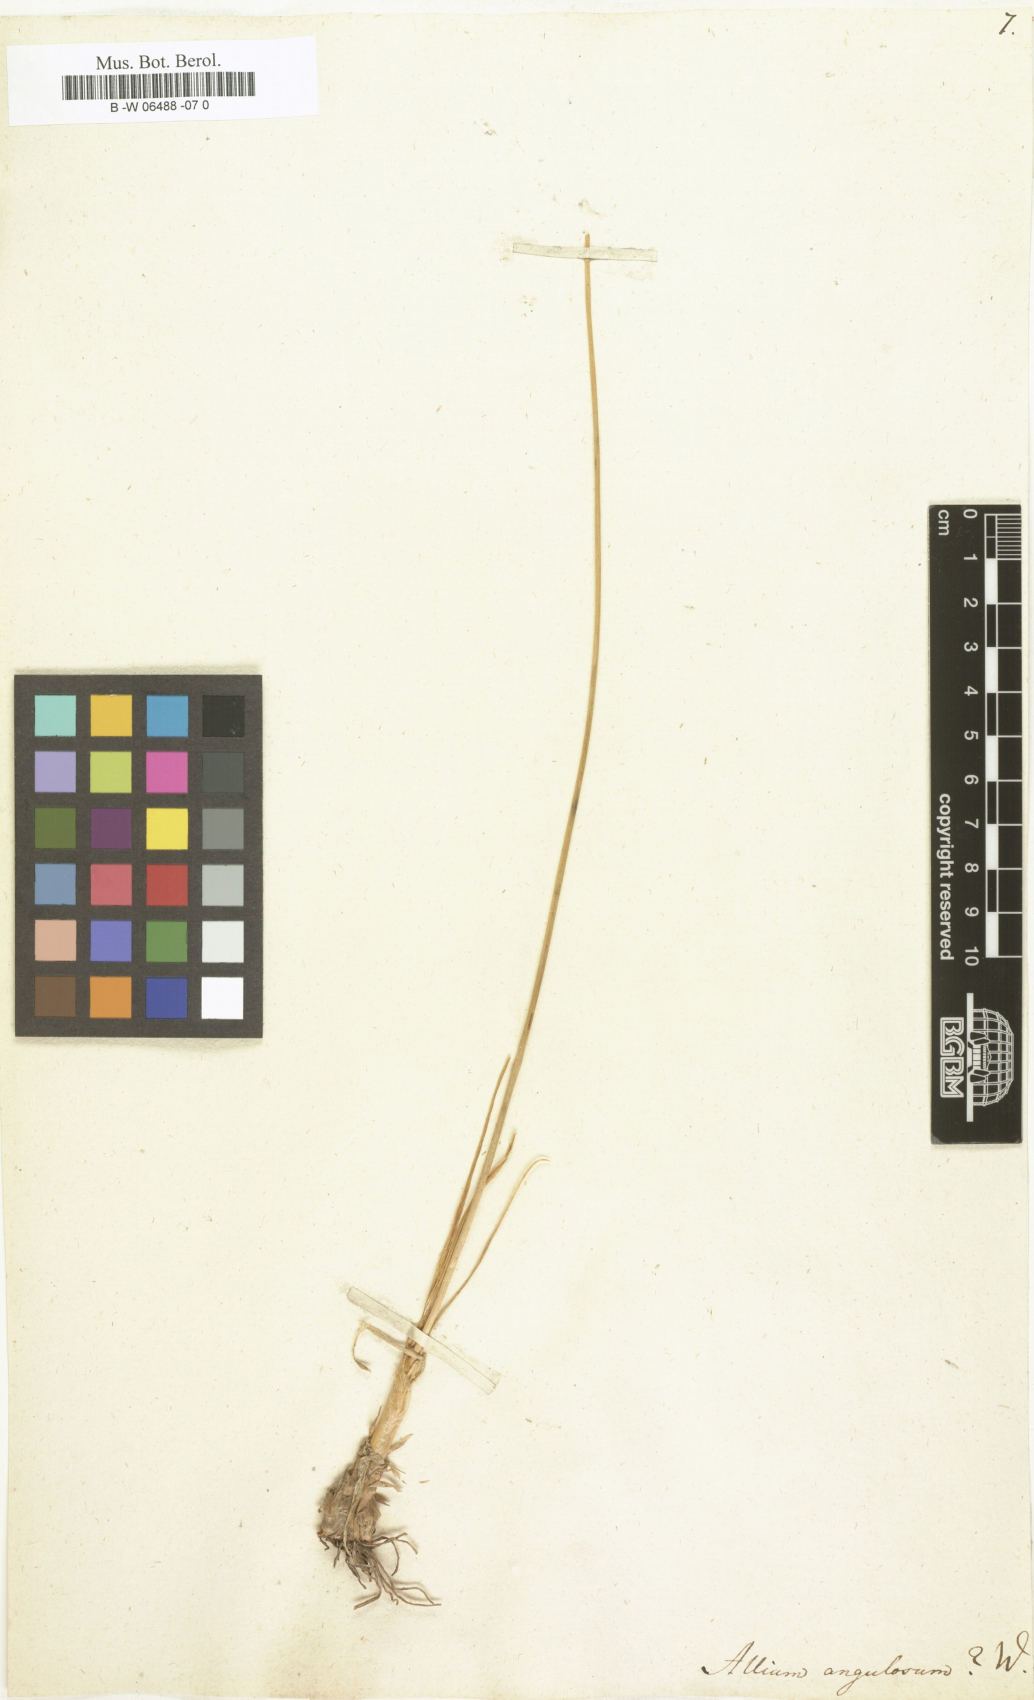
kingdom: Plantae
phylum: Tracheophyta
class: Liliopsida
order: Asparagales
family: Amaryllidaceae
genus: Allium
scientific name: Allium angulosum
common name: Mouse garlic
